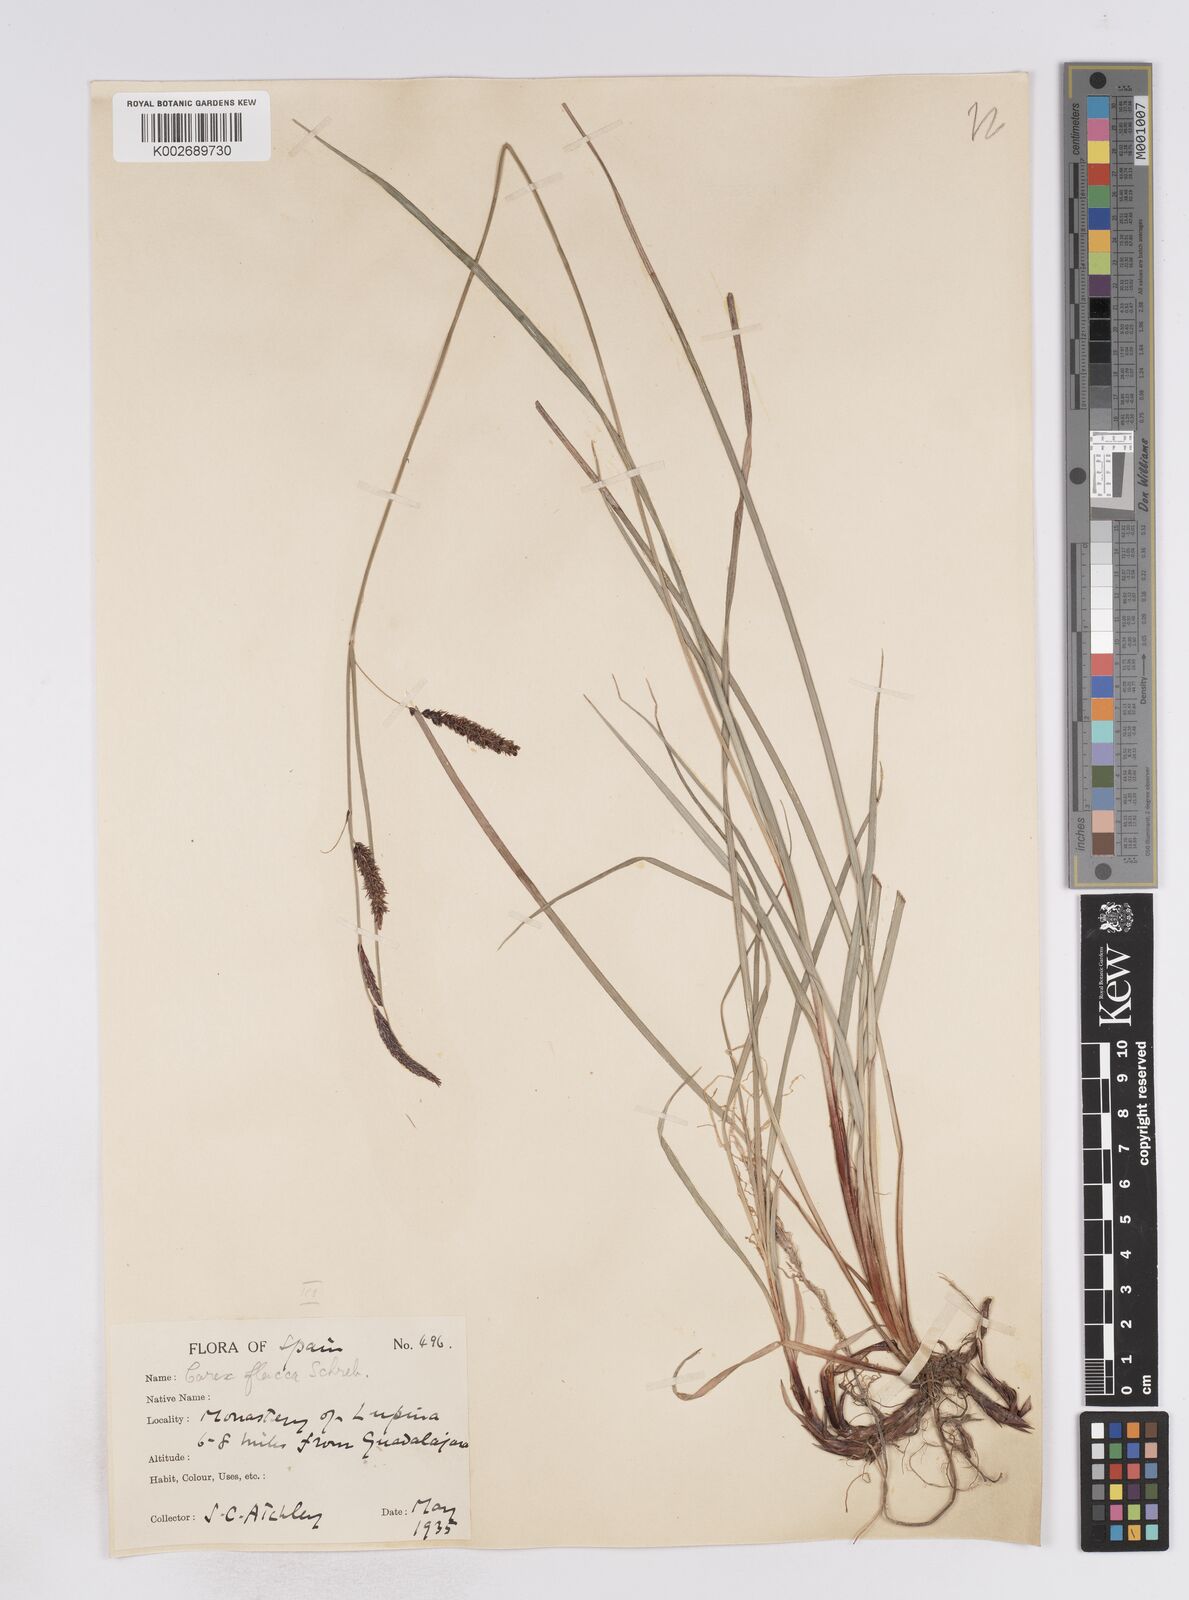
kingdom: Plantae
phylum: Tracheophyta
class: Liliopsida
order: Poales
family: Cyperaceae
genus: Carex
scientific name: Carex flacca
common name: Glaucous sedge
